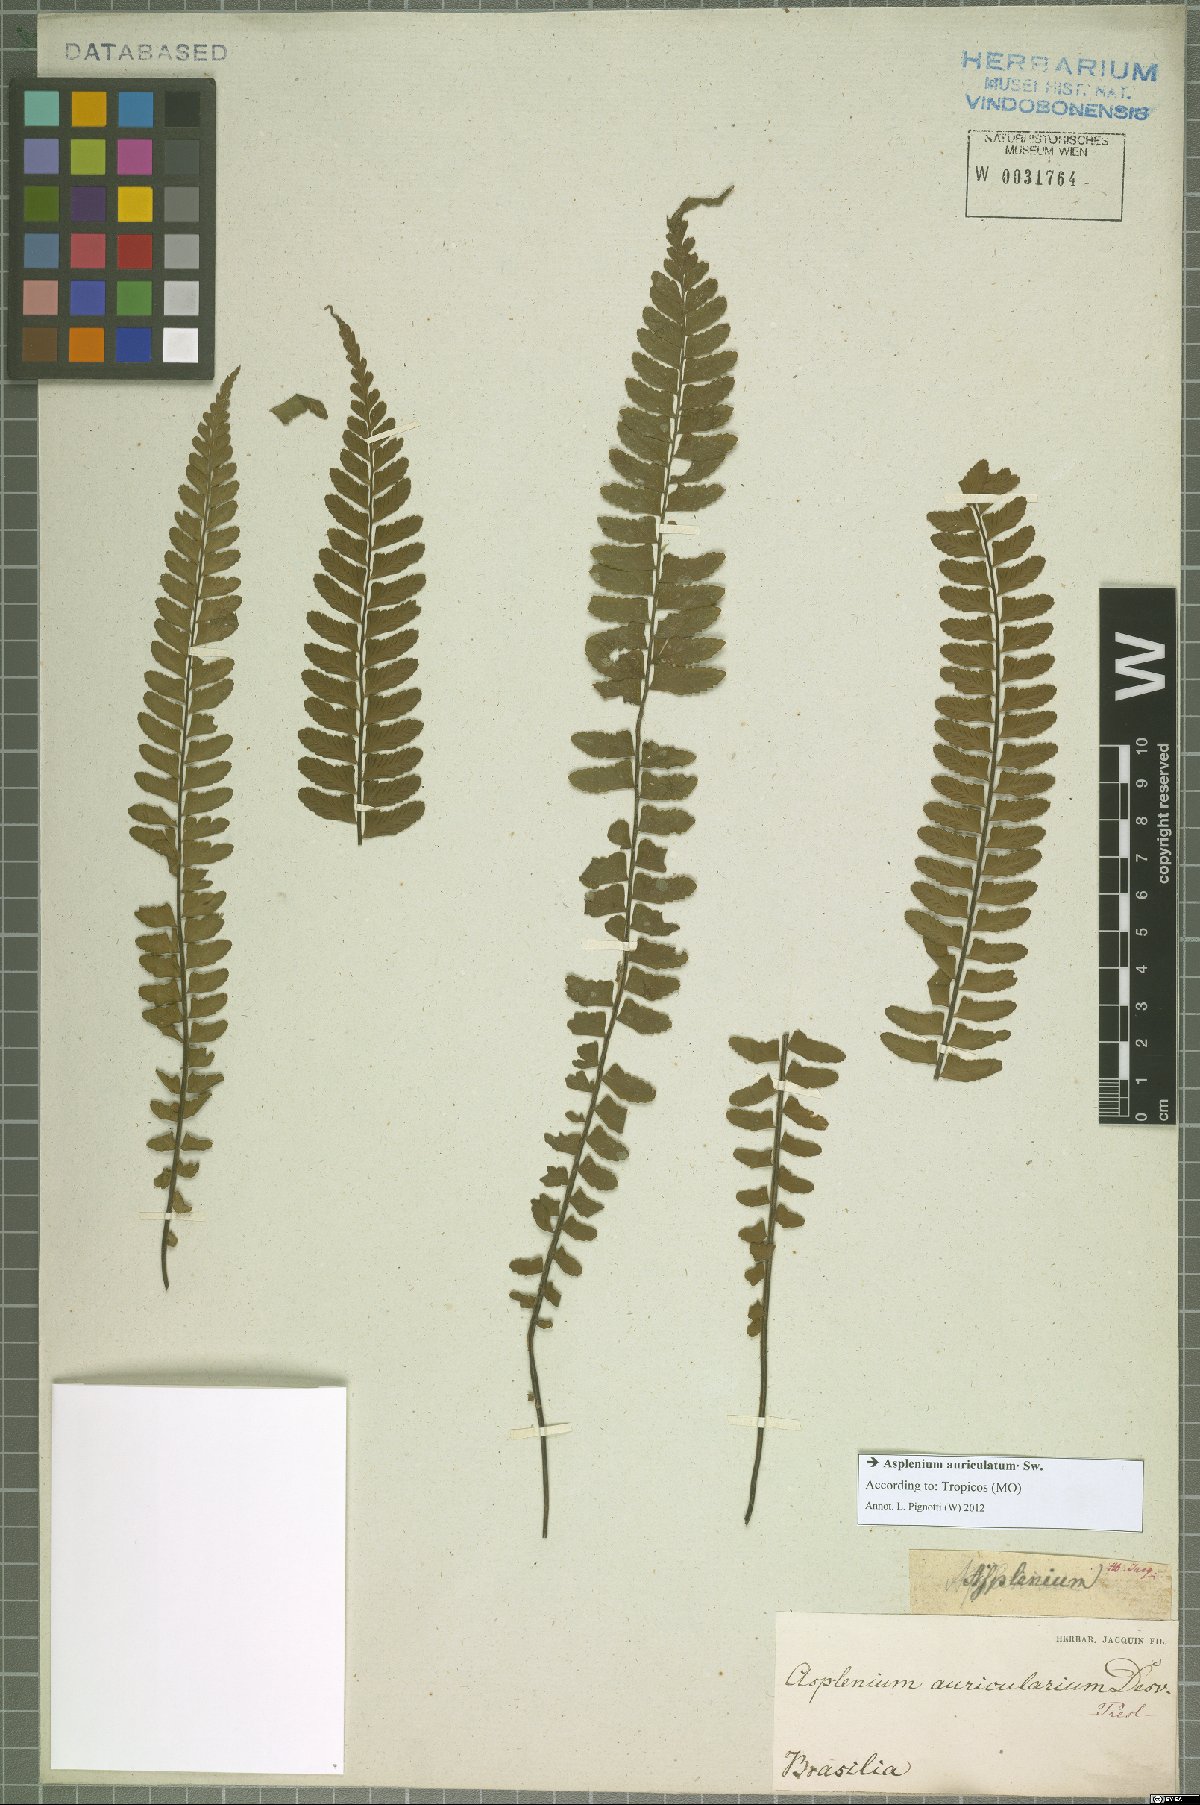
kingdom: Plantae
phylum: Tracheophyta
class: Polypodiopsida
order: Polypodiales
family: Aspleniaceae
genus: Asplenium
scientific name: Asplenium auriculatum
